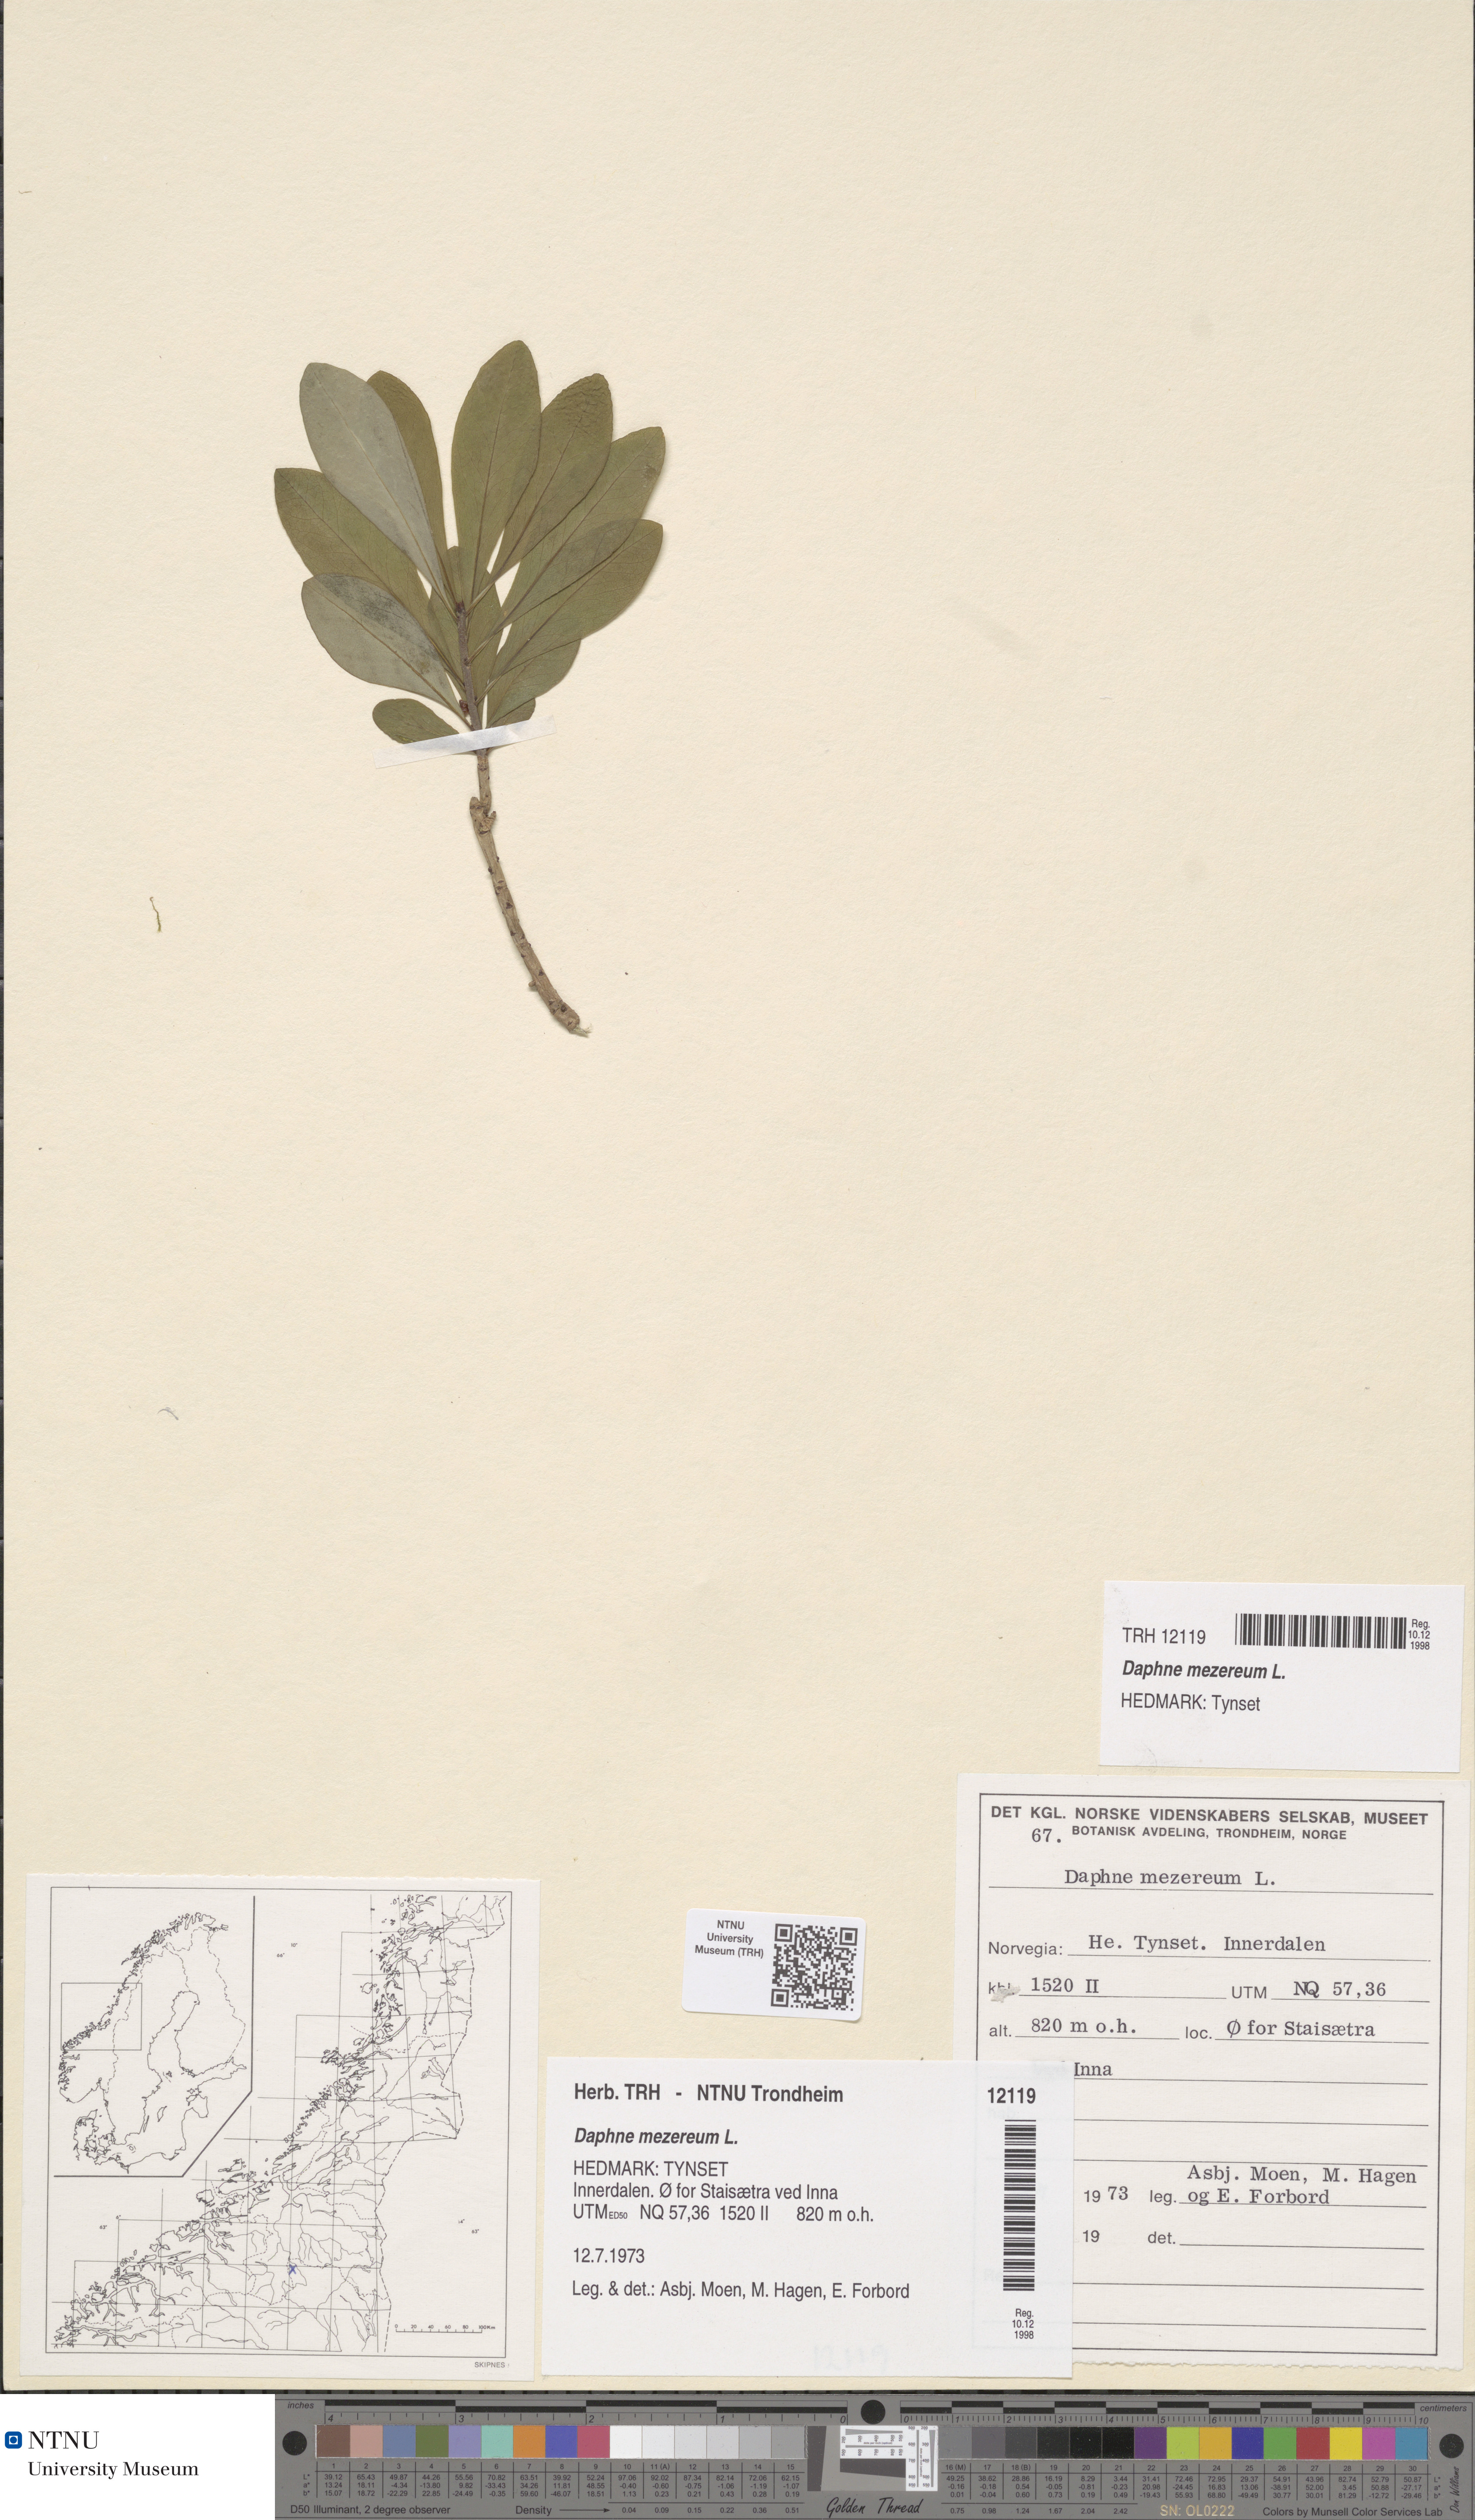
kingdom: Plantae
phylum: Tracheophyta
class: Magnoliopsida
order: Malvales
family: Thymelaeaceae
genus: Daphne
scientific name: Daphne mezereum
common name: Mezereon
